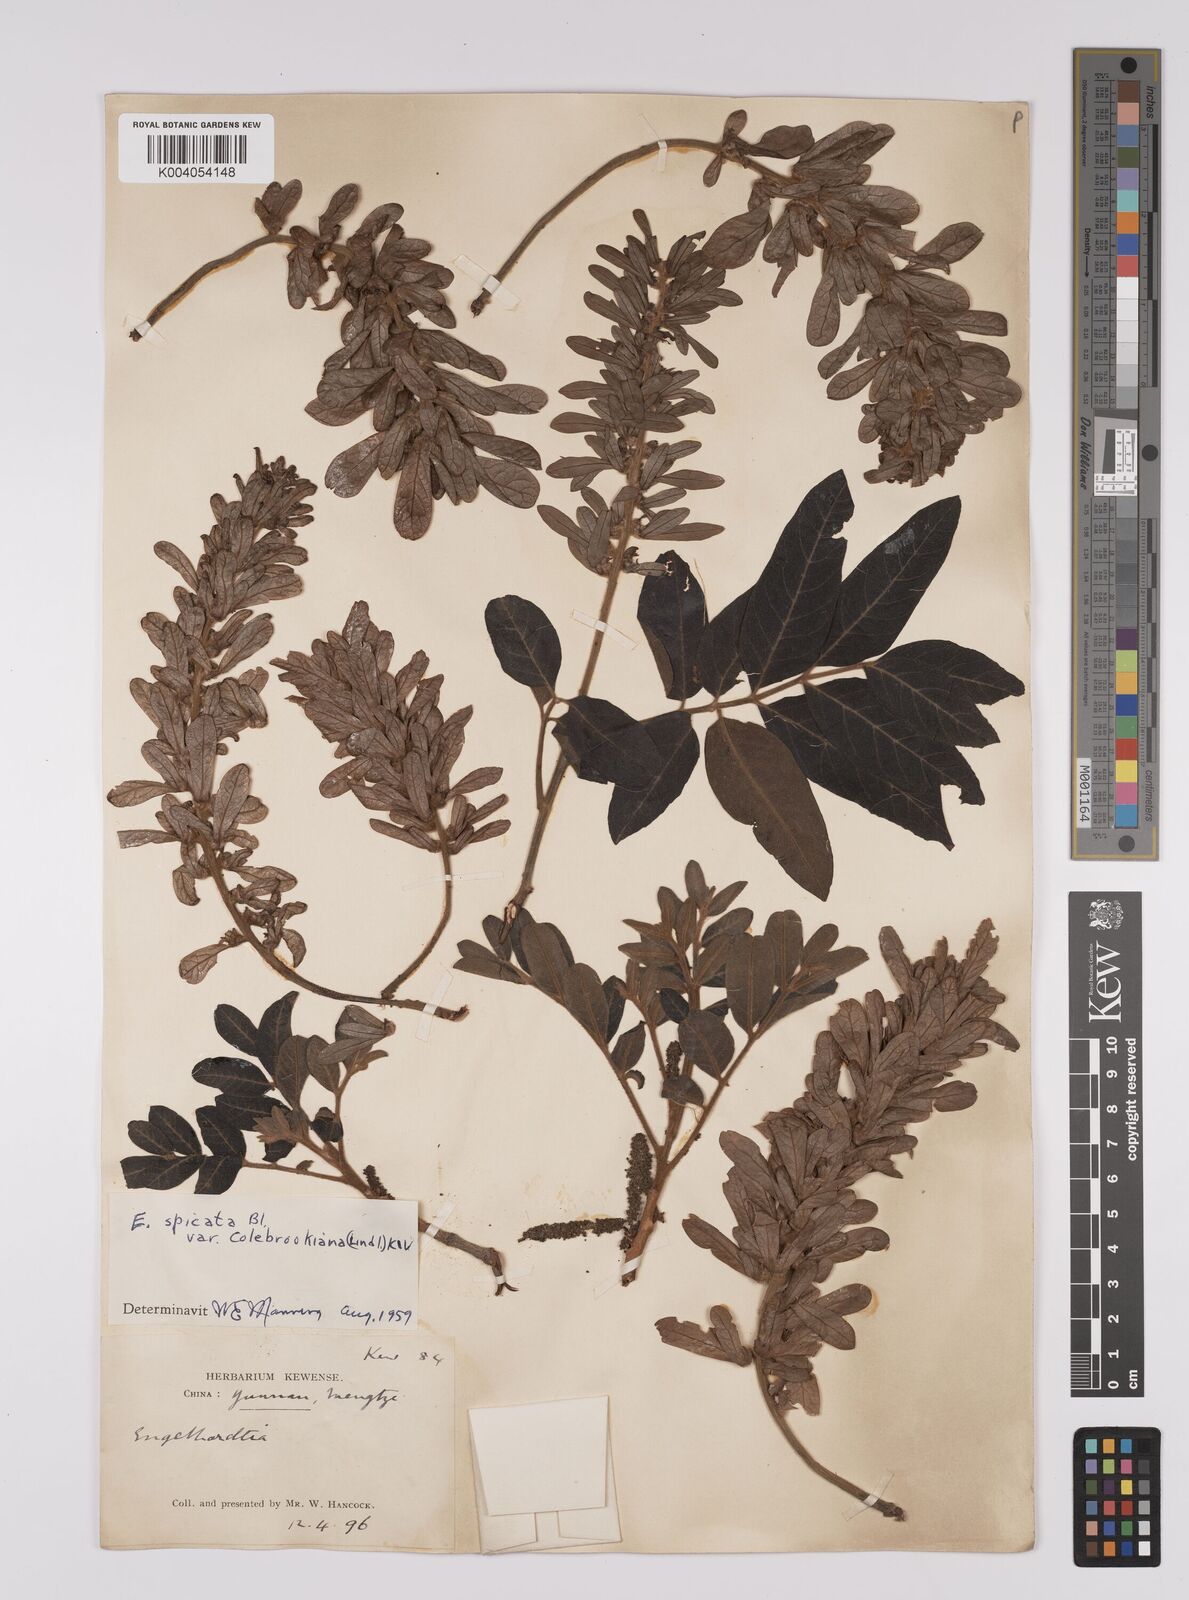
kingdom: Plantae
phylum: Tracheophyta
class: Magnoliopsida
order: Fagales
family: Juglandaceae
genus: Engelhardia
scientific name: Engelhardia spicata
